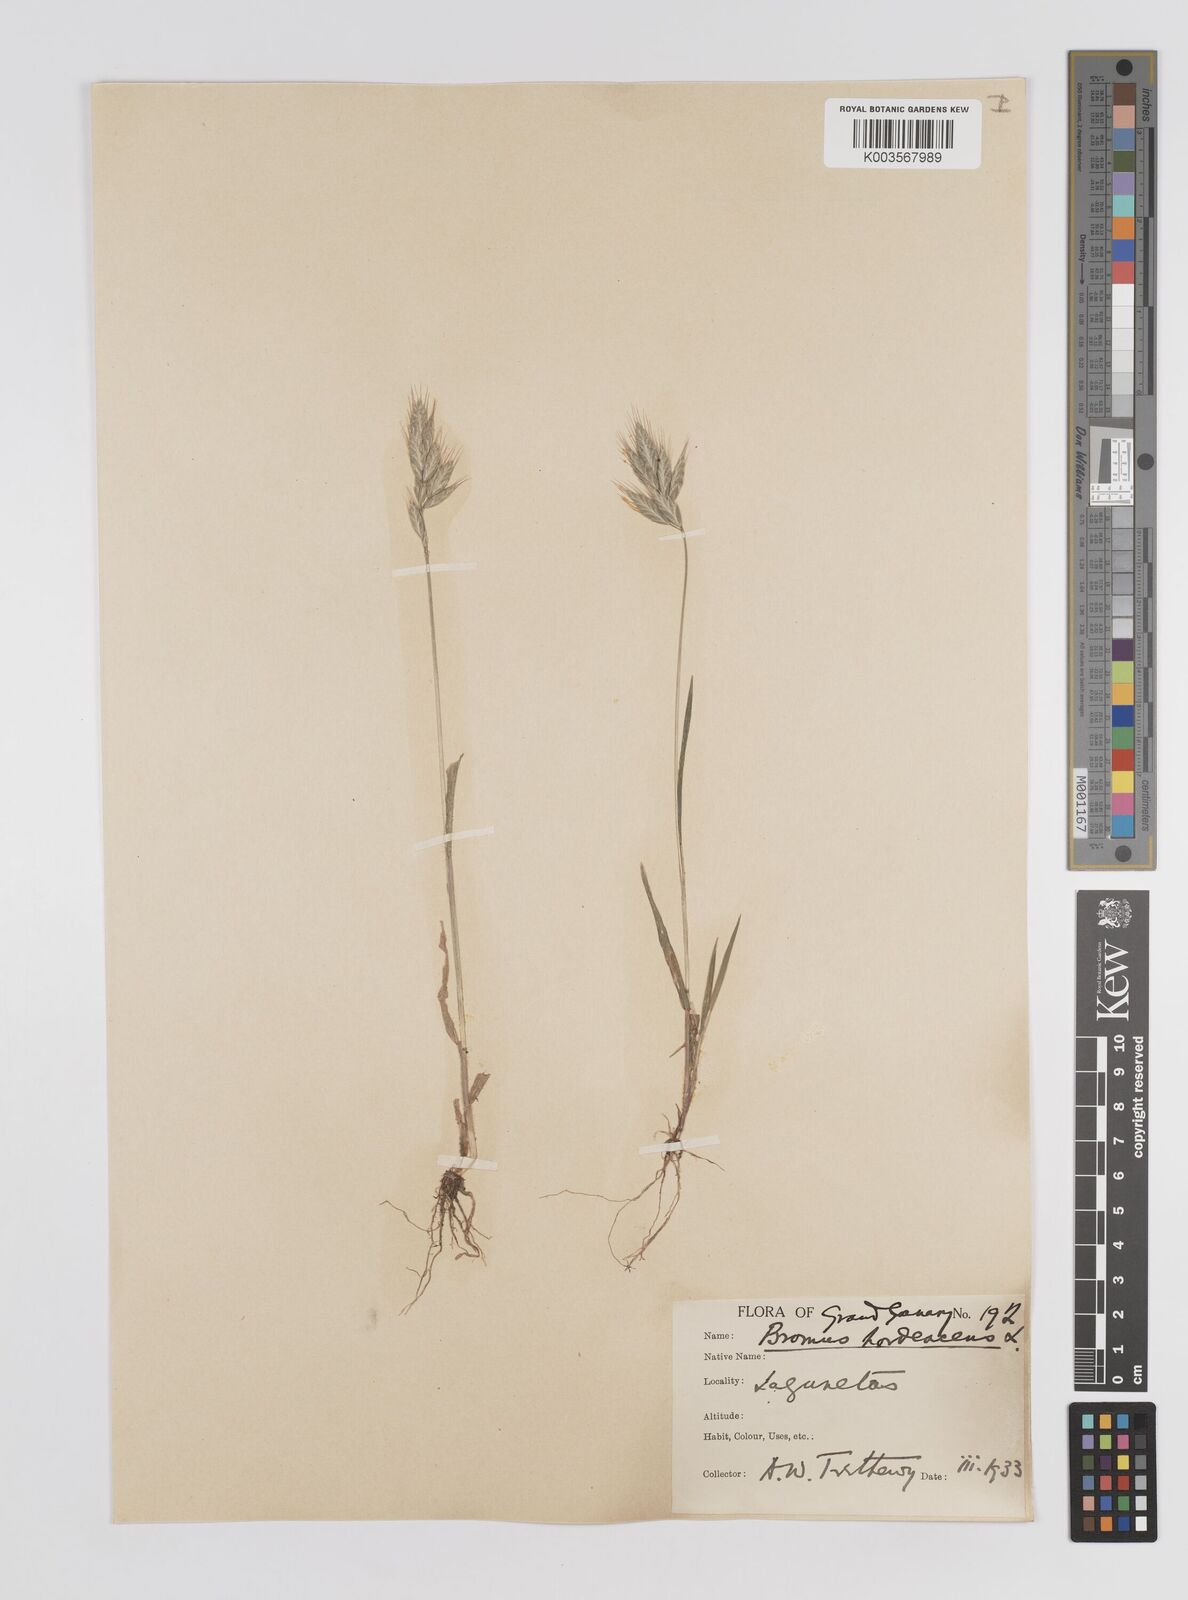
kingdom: Plantae
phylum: Tracheophyta
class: Liliopsida
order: Poales
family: Poaceae
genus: Bromus
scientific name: Bromus
